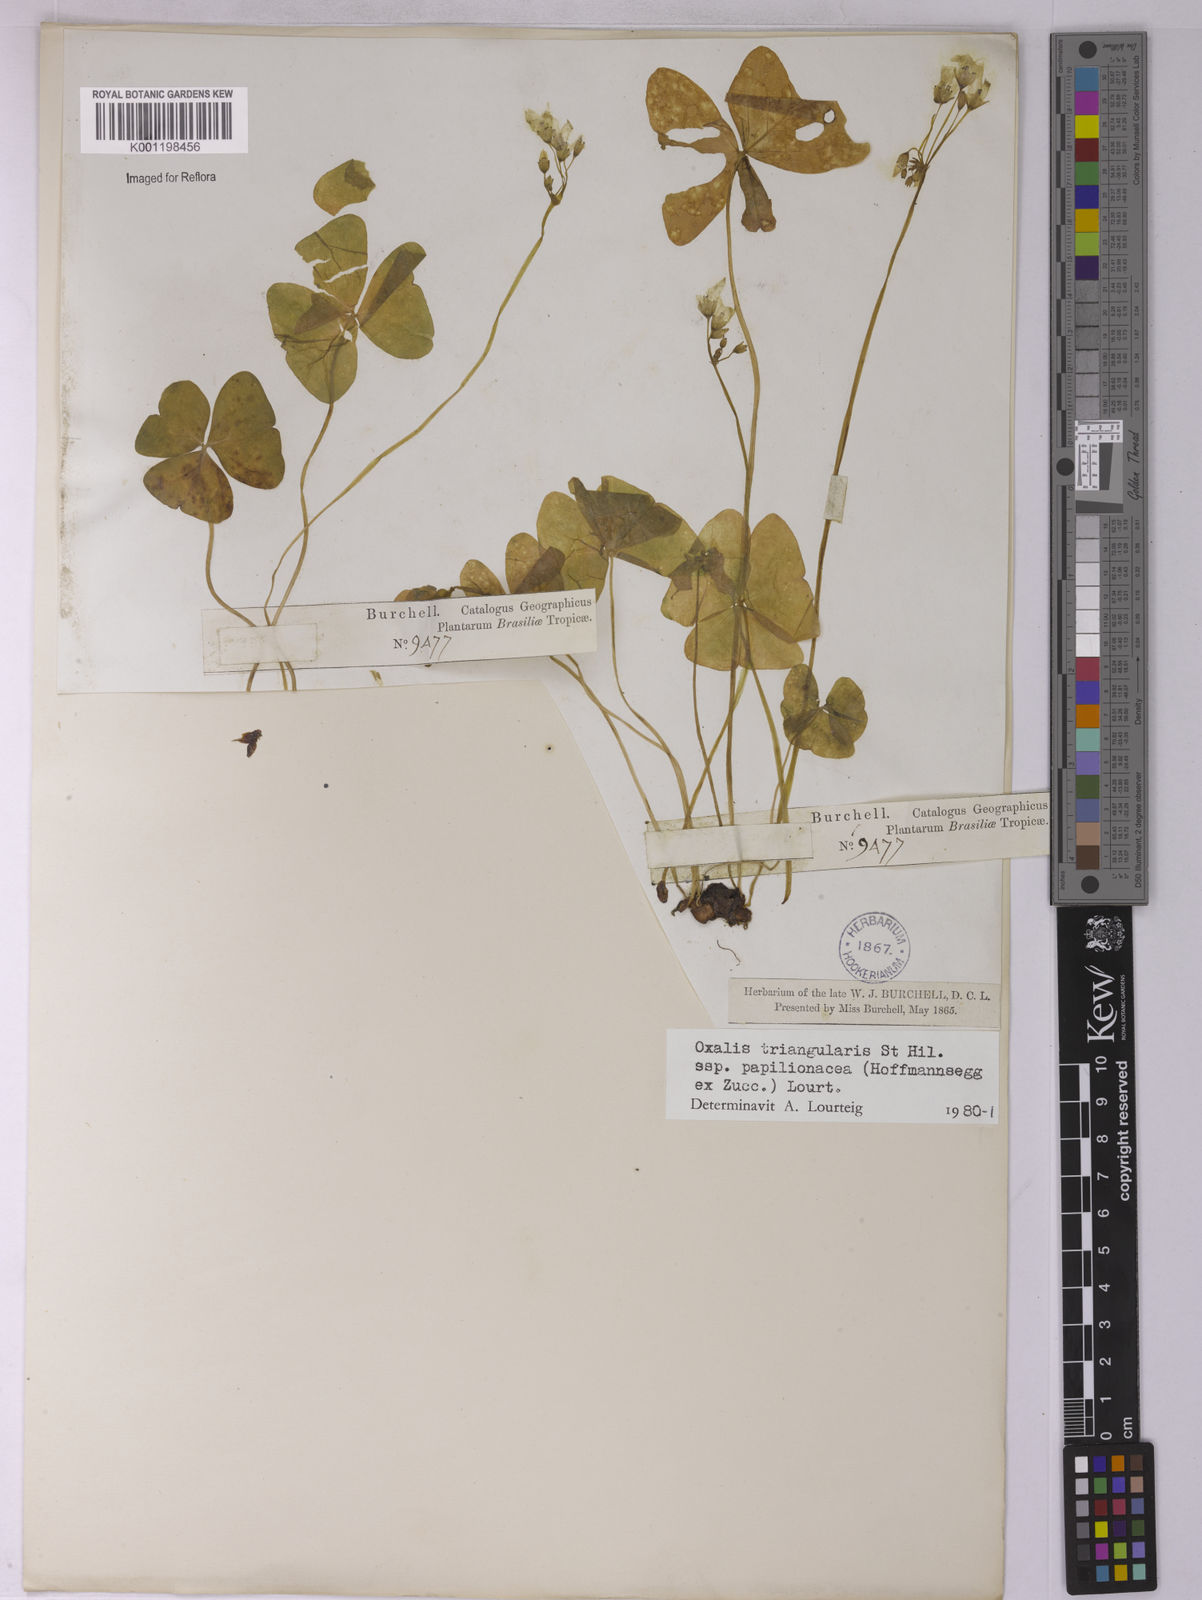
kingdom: Plantae
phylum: Tracheophyta
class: Magnoliopsida
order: Oxalidales
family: Oxalidaceae
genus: Oxalis
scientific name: Oxalis triangularis
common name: Wood sorrel
